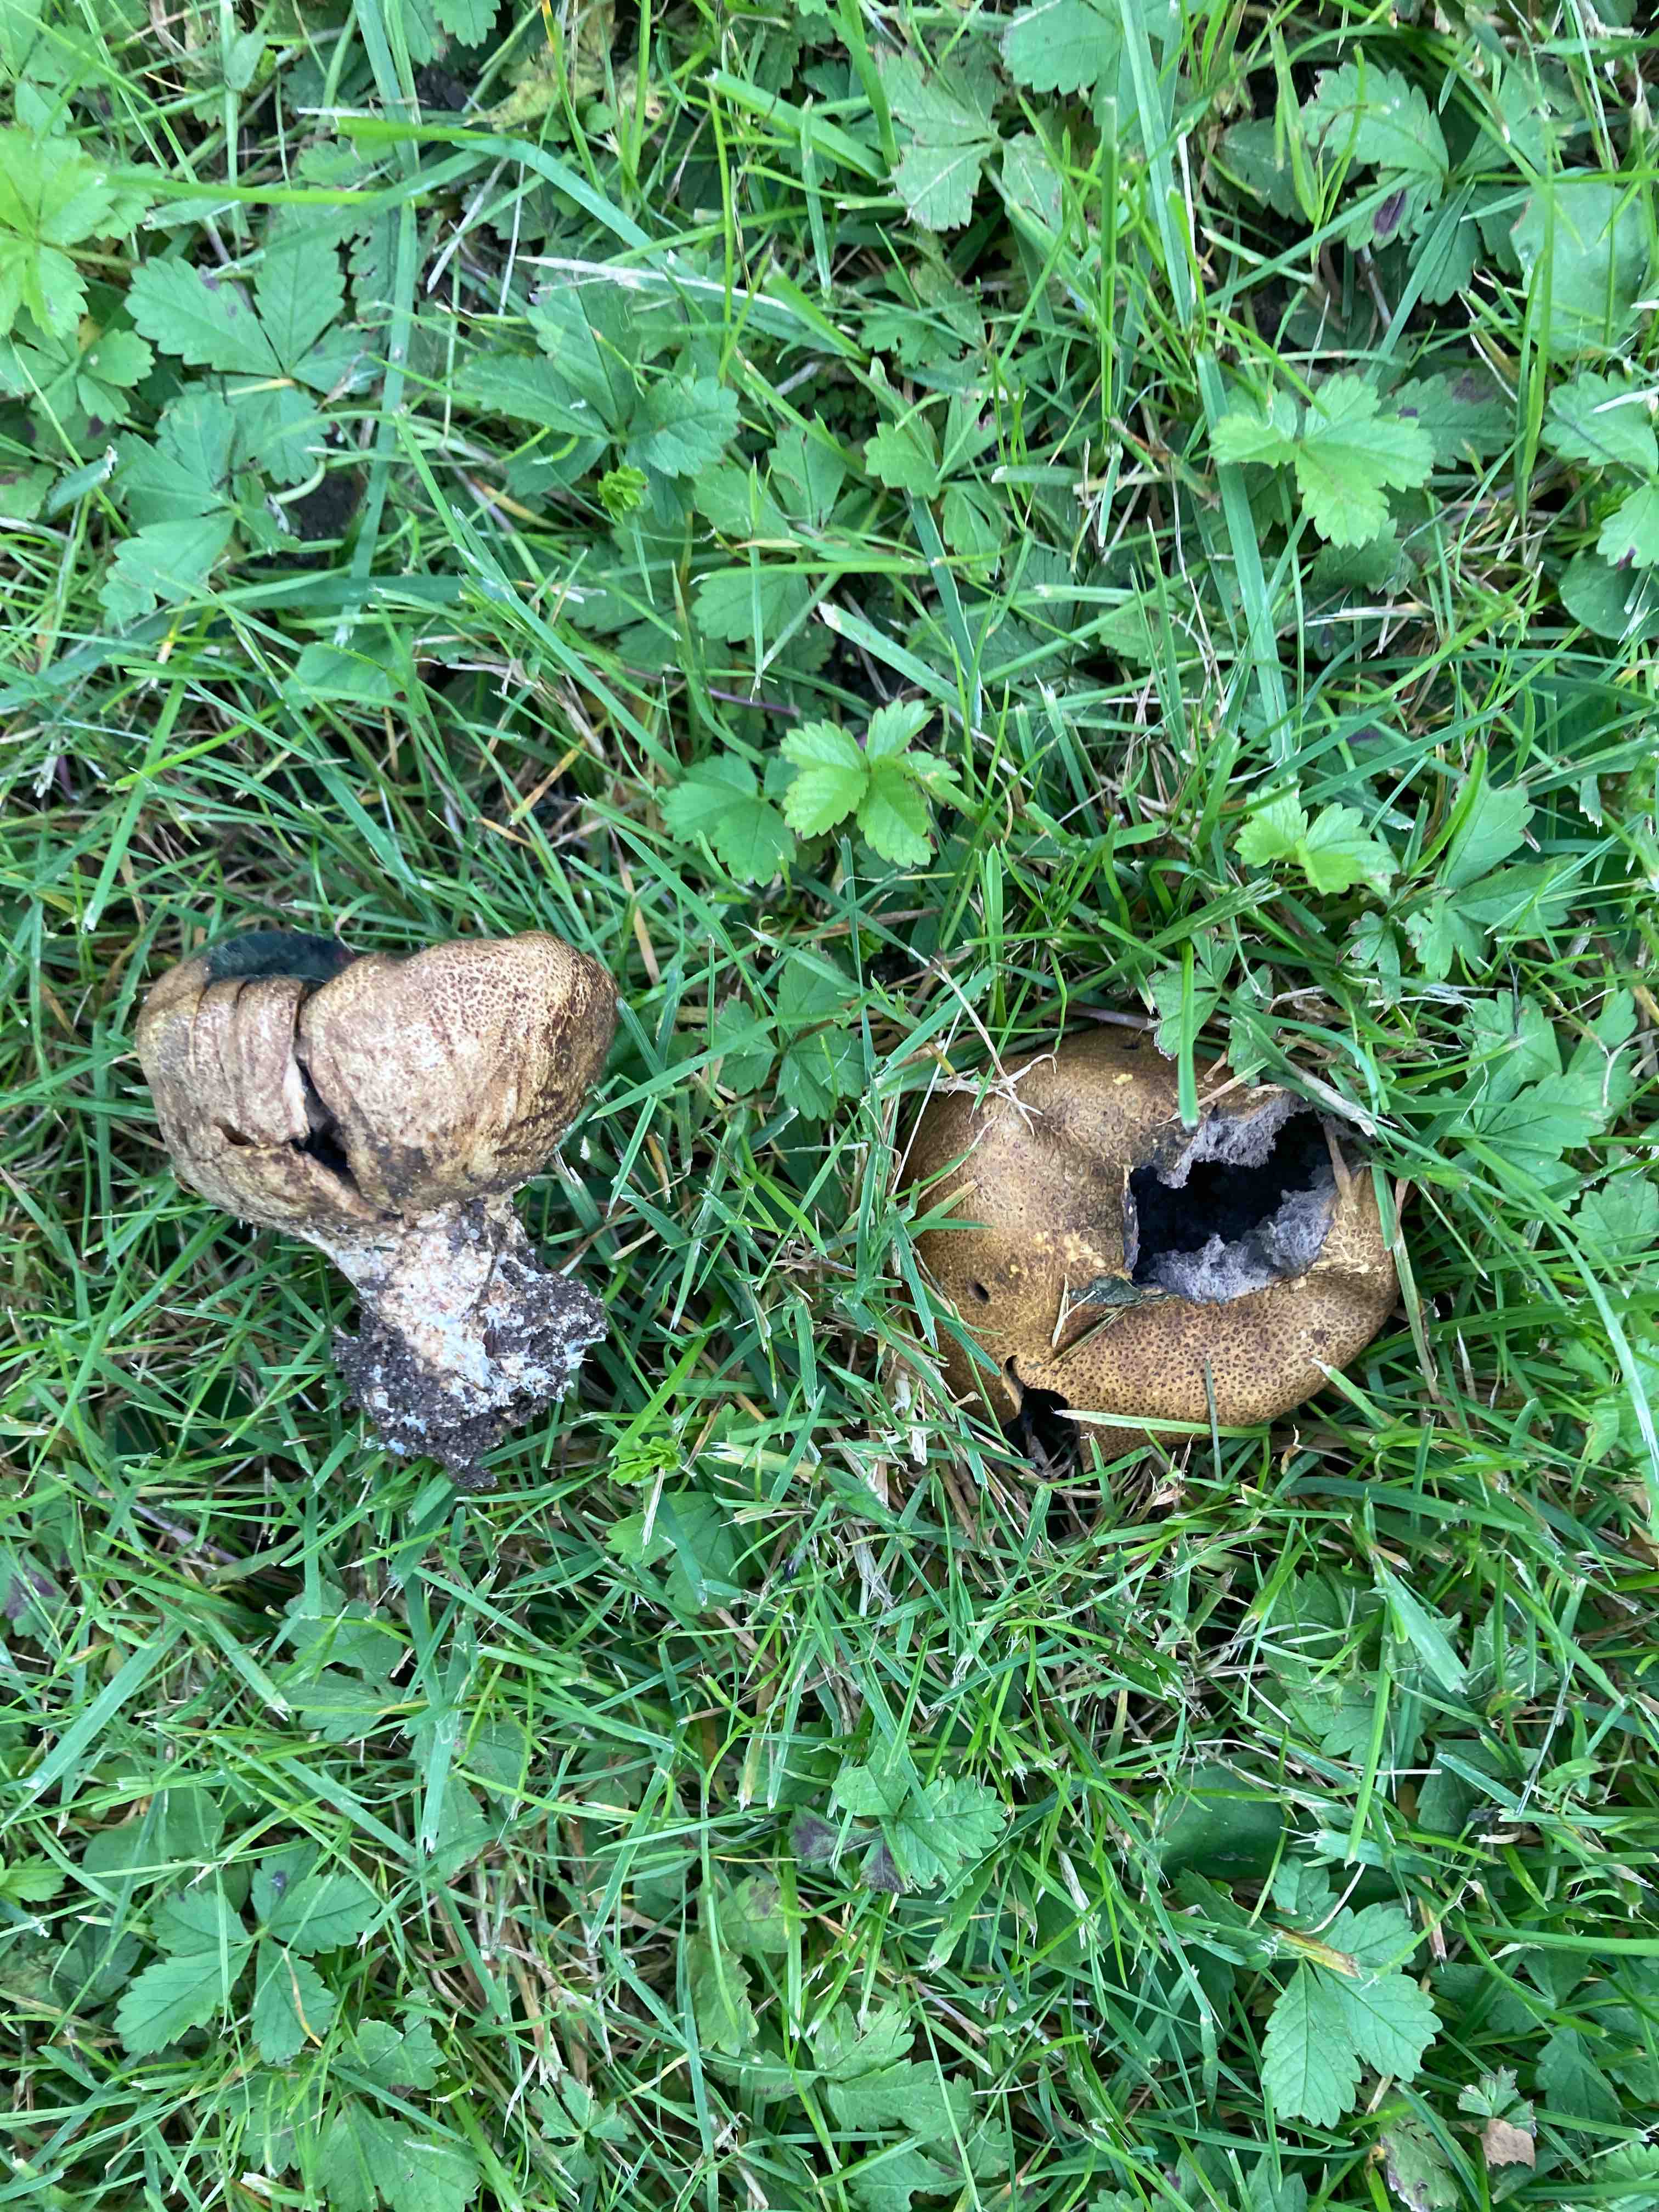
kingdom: Fungi
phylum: Basidiomycota
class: Agaricomycetes
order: Boletales
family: Sclerodermataceae
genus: Scleroderma
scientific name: Scleroderma verrucosum
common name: stilket bruskbold
